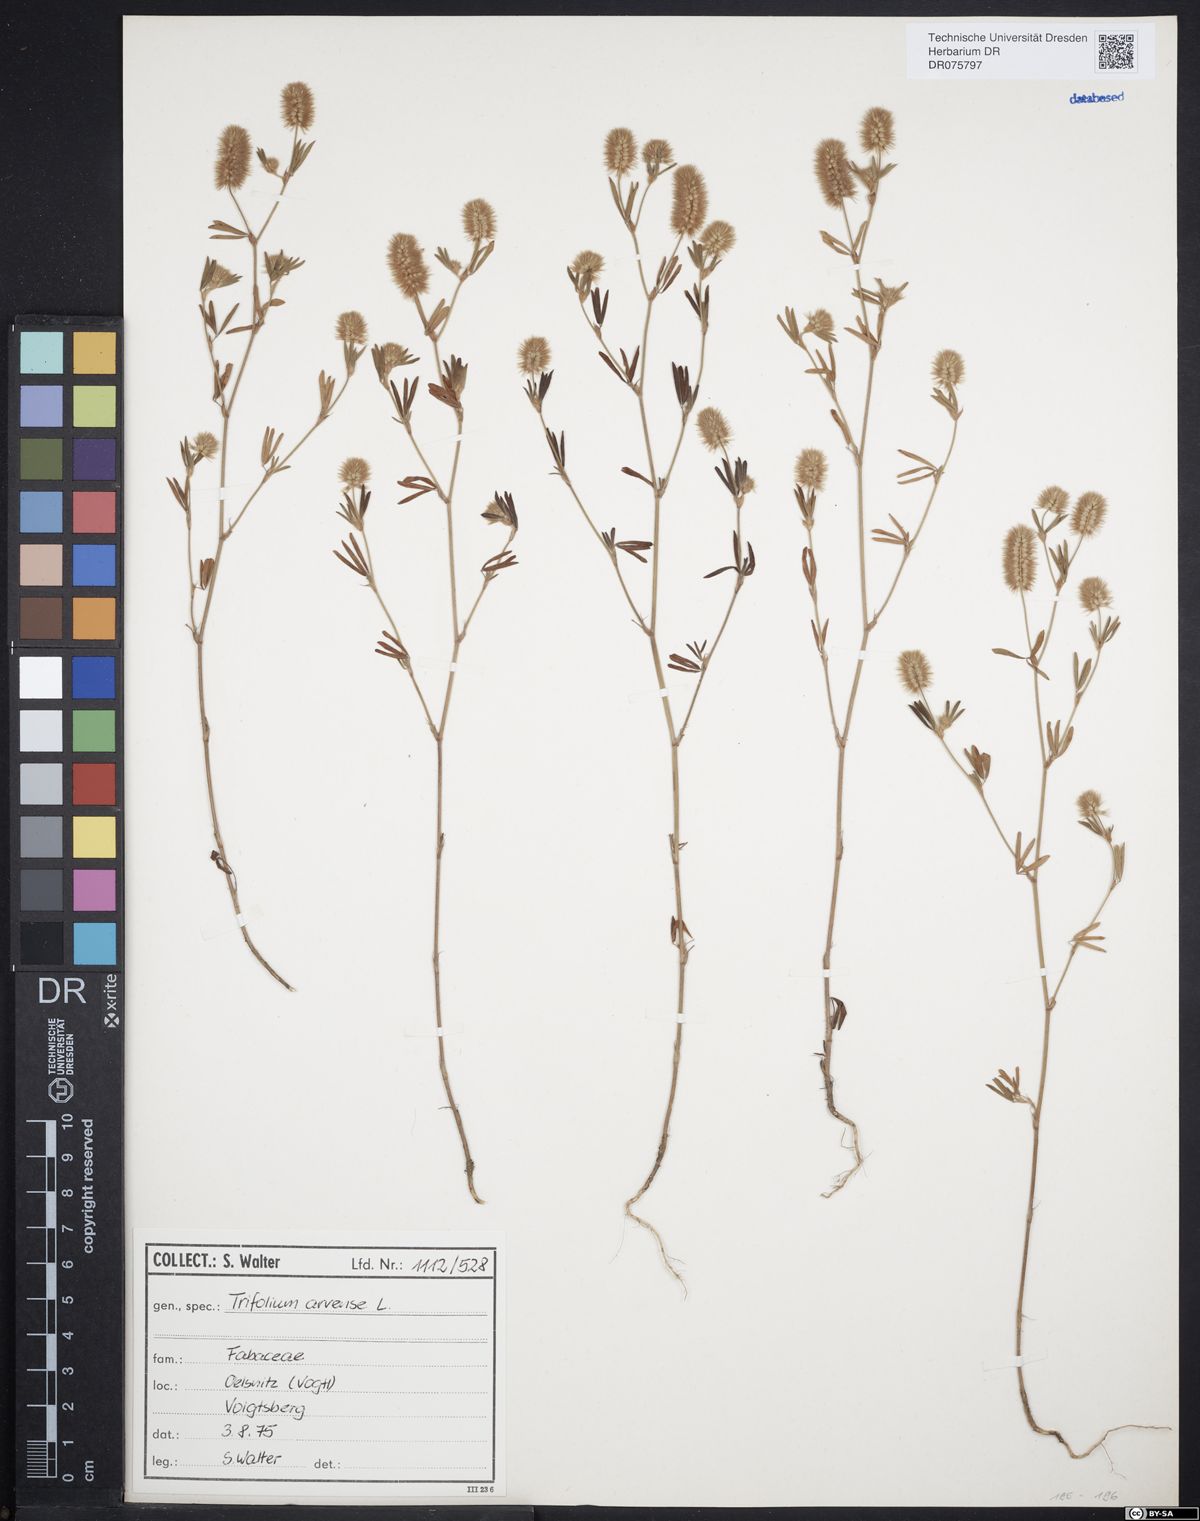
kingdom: Plantae
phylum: Tracheophyta
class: Magnoliopsida
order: Fabales
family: Fabaceae
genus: Trifolium
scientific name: Trifolium arvense
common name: Hare's-foot clover
